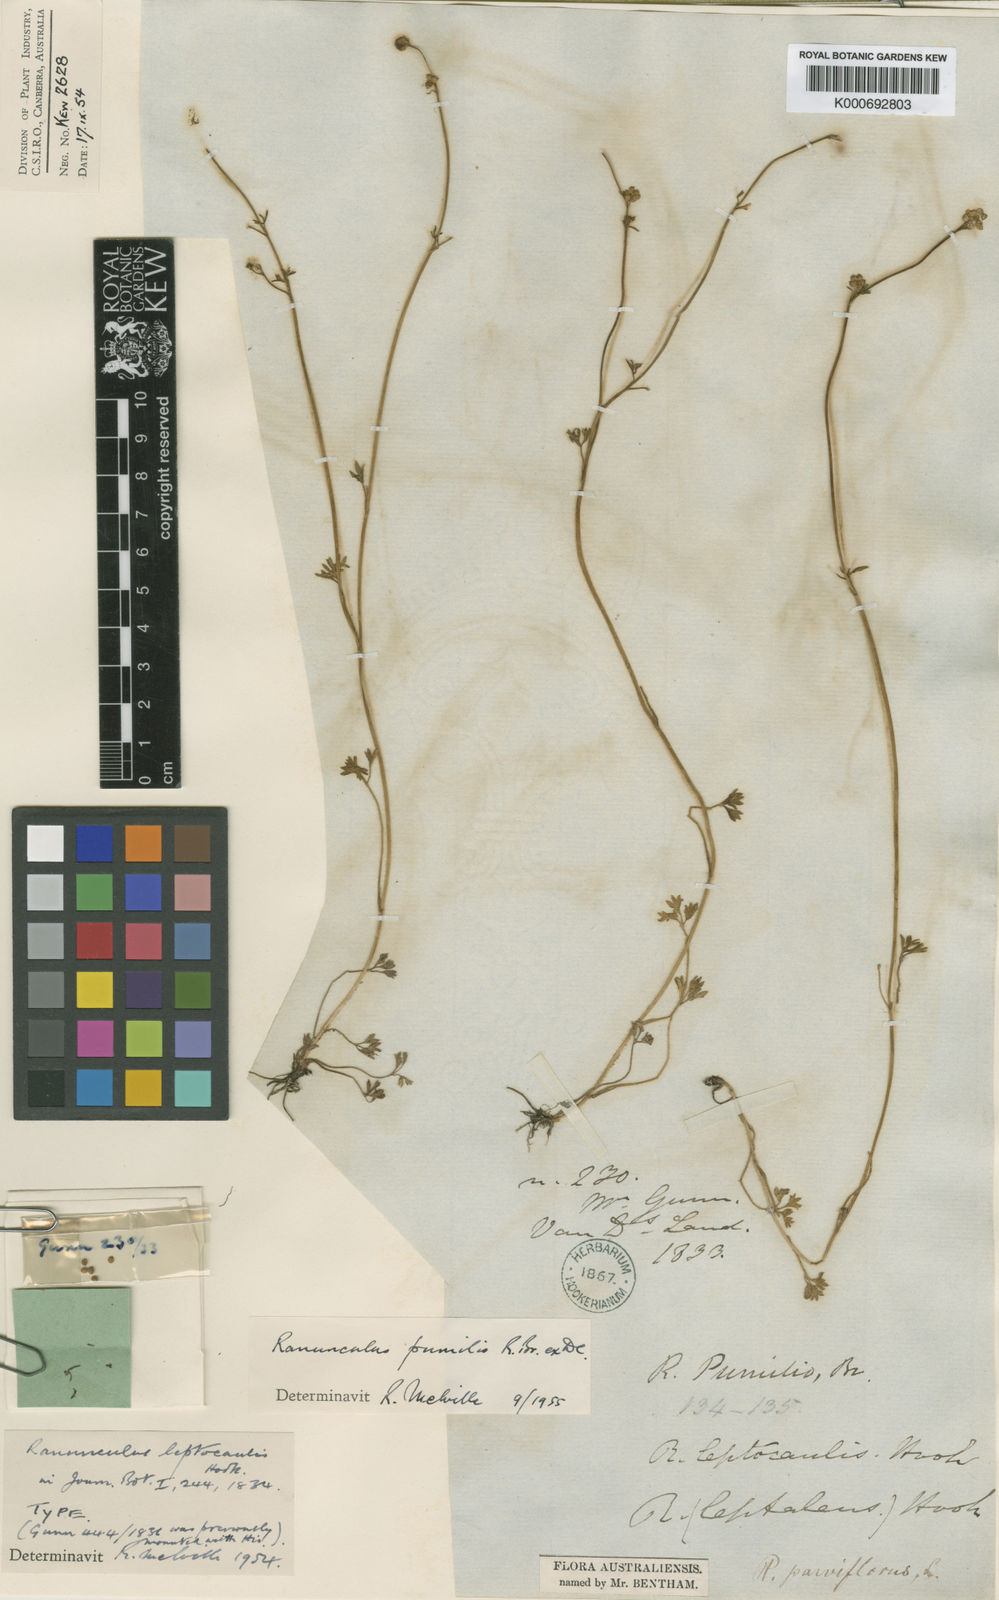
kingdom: Plantae
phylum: Tracheophyta
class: Magnoliopsida
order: Ranunculales
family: Ranunculaceae
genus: Ranunculus
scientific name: Ranunculus pumilio
